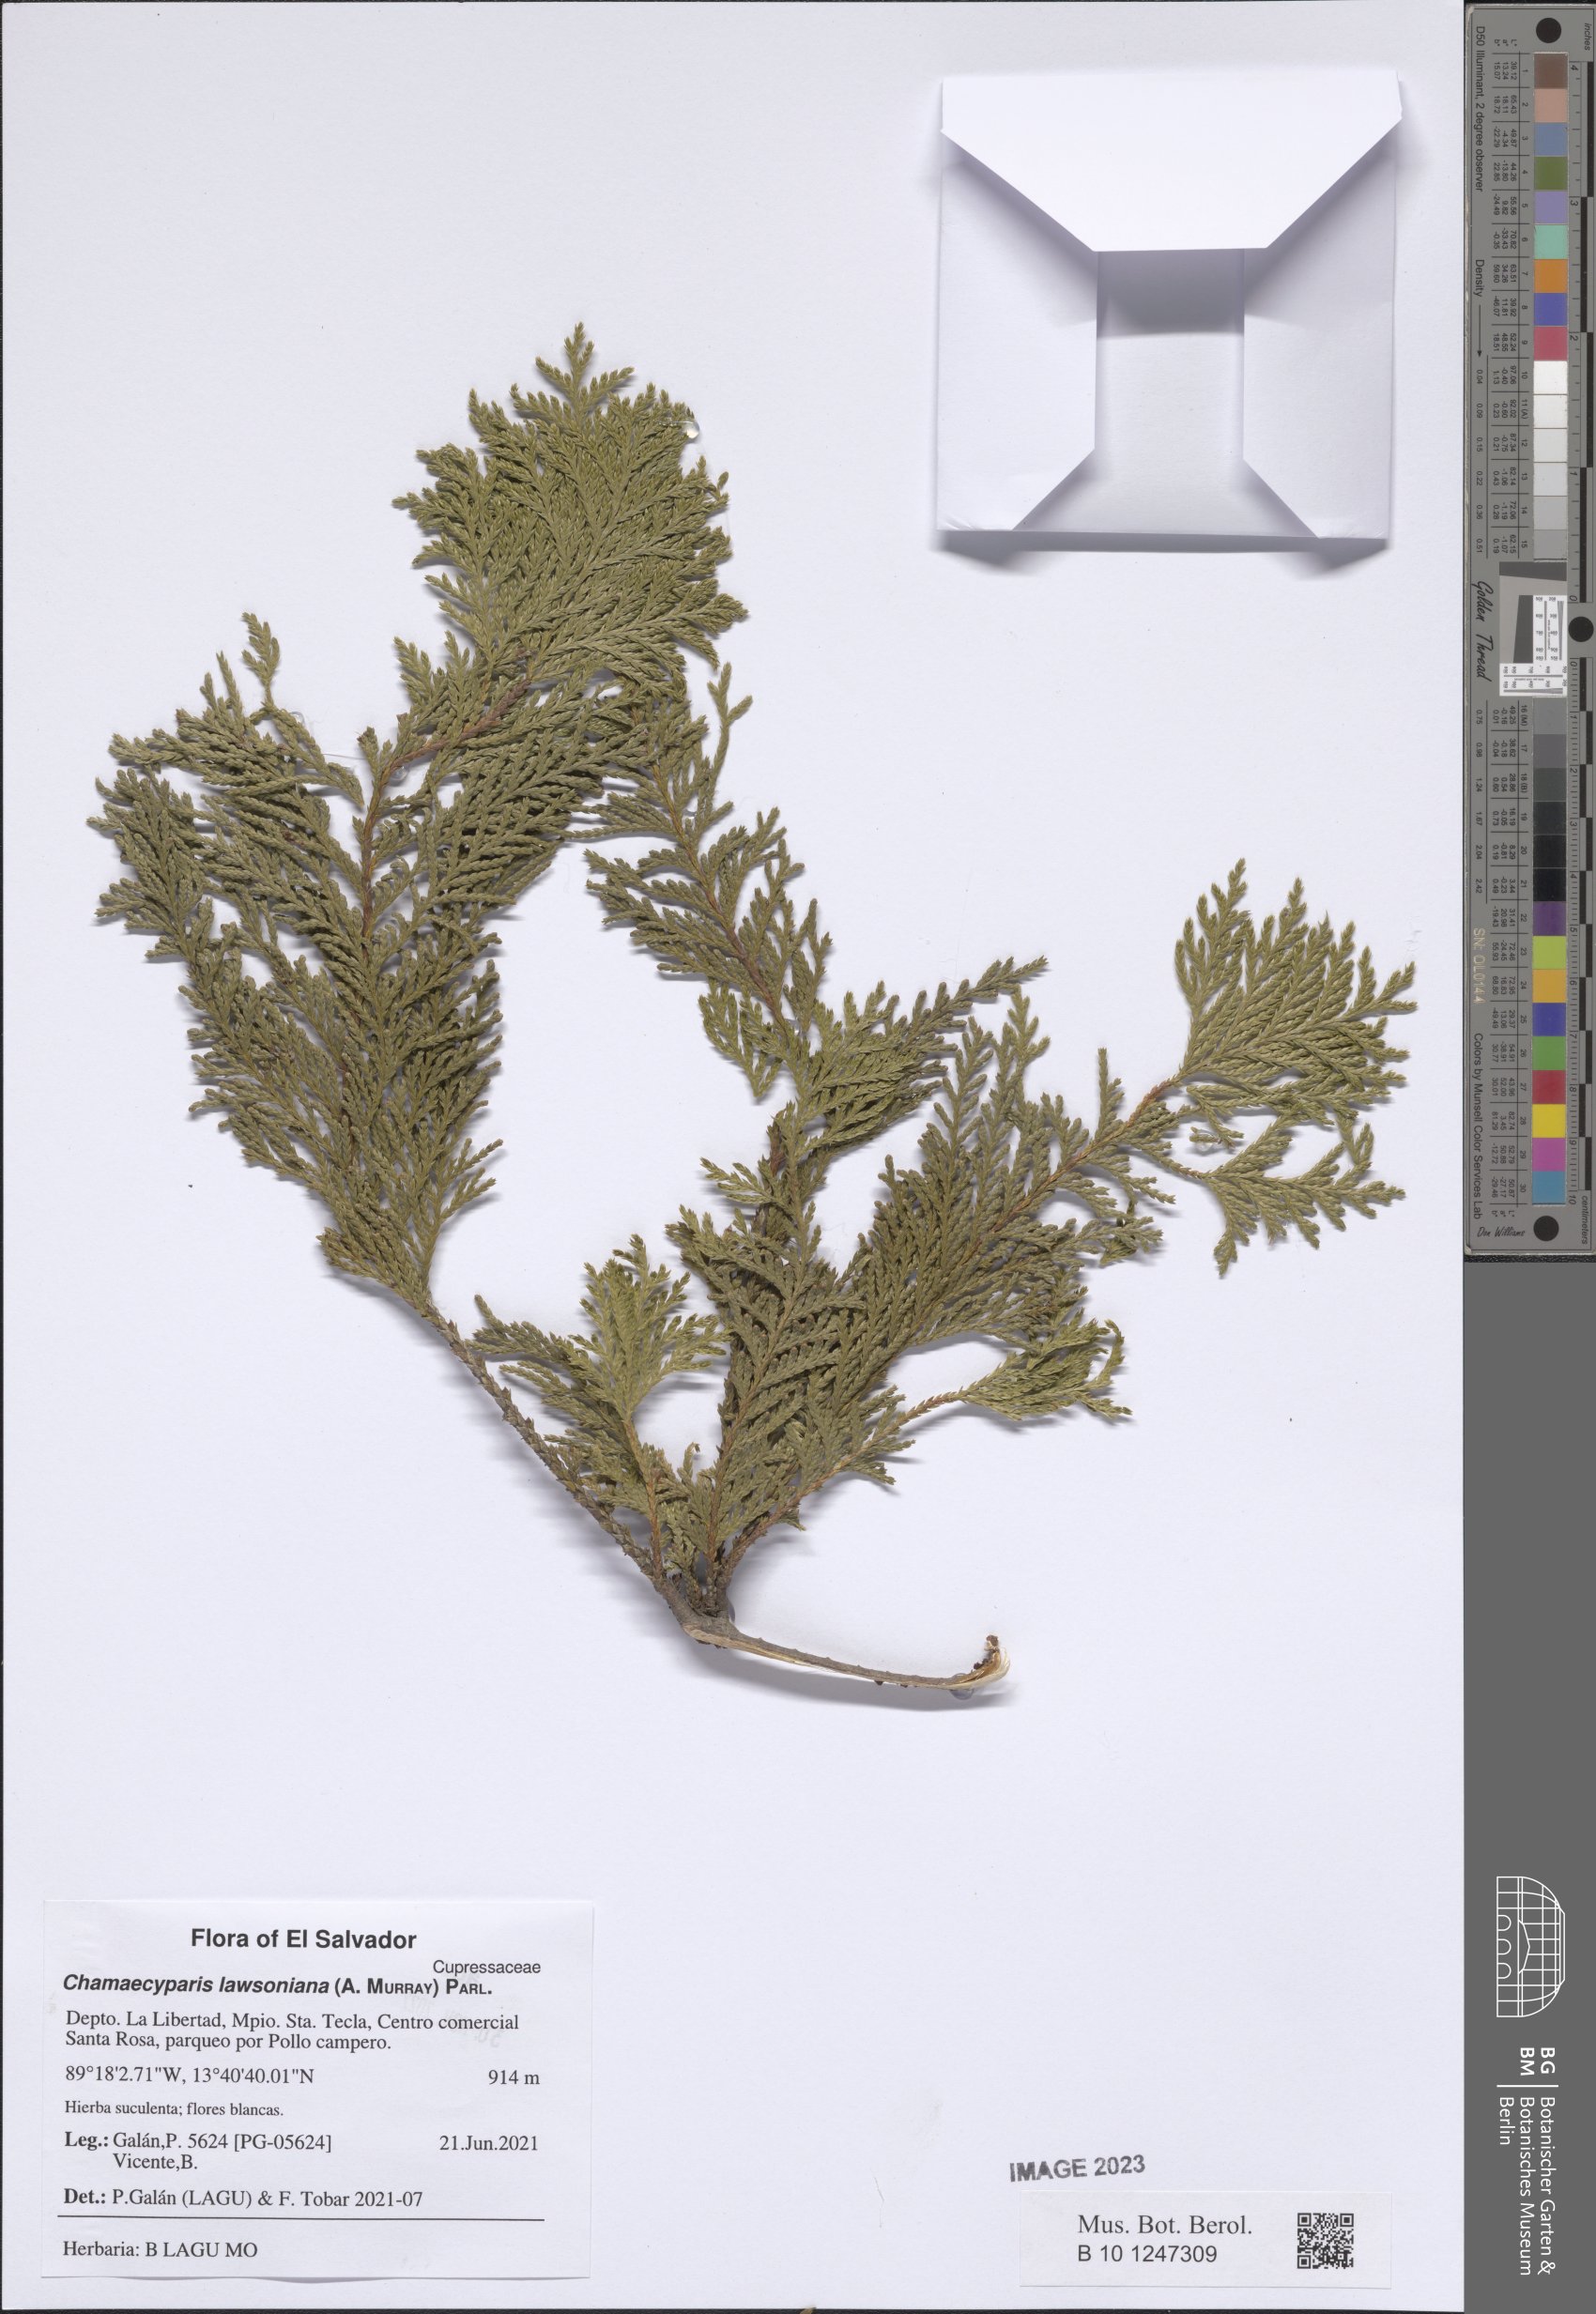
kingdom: Plantae
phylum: Tracheophyta
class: Pinopsida
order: Pinales
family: Cupressaceae
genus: Chamaecyparis
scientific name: Chamaecyparis lawsoniana
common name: Lawson's cypress
